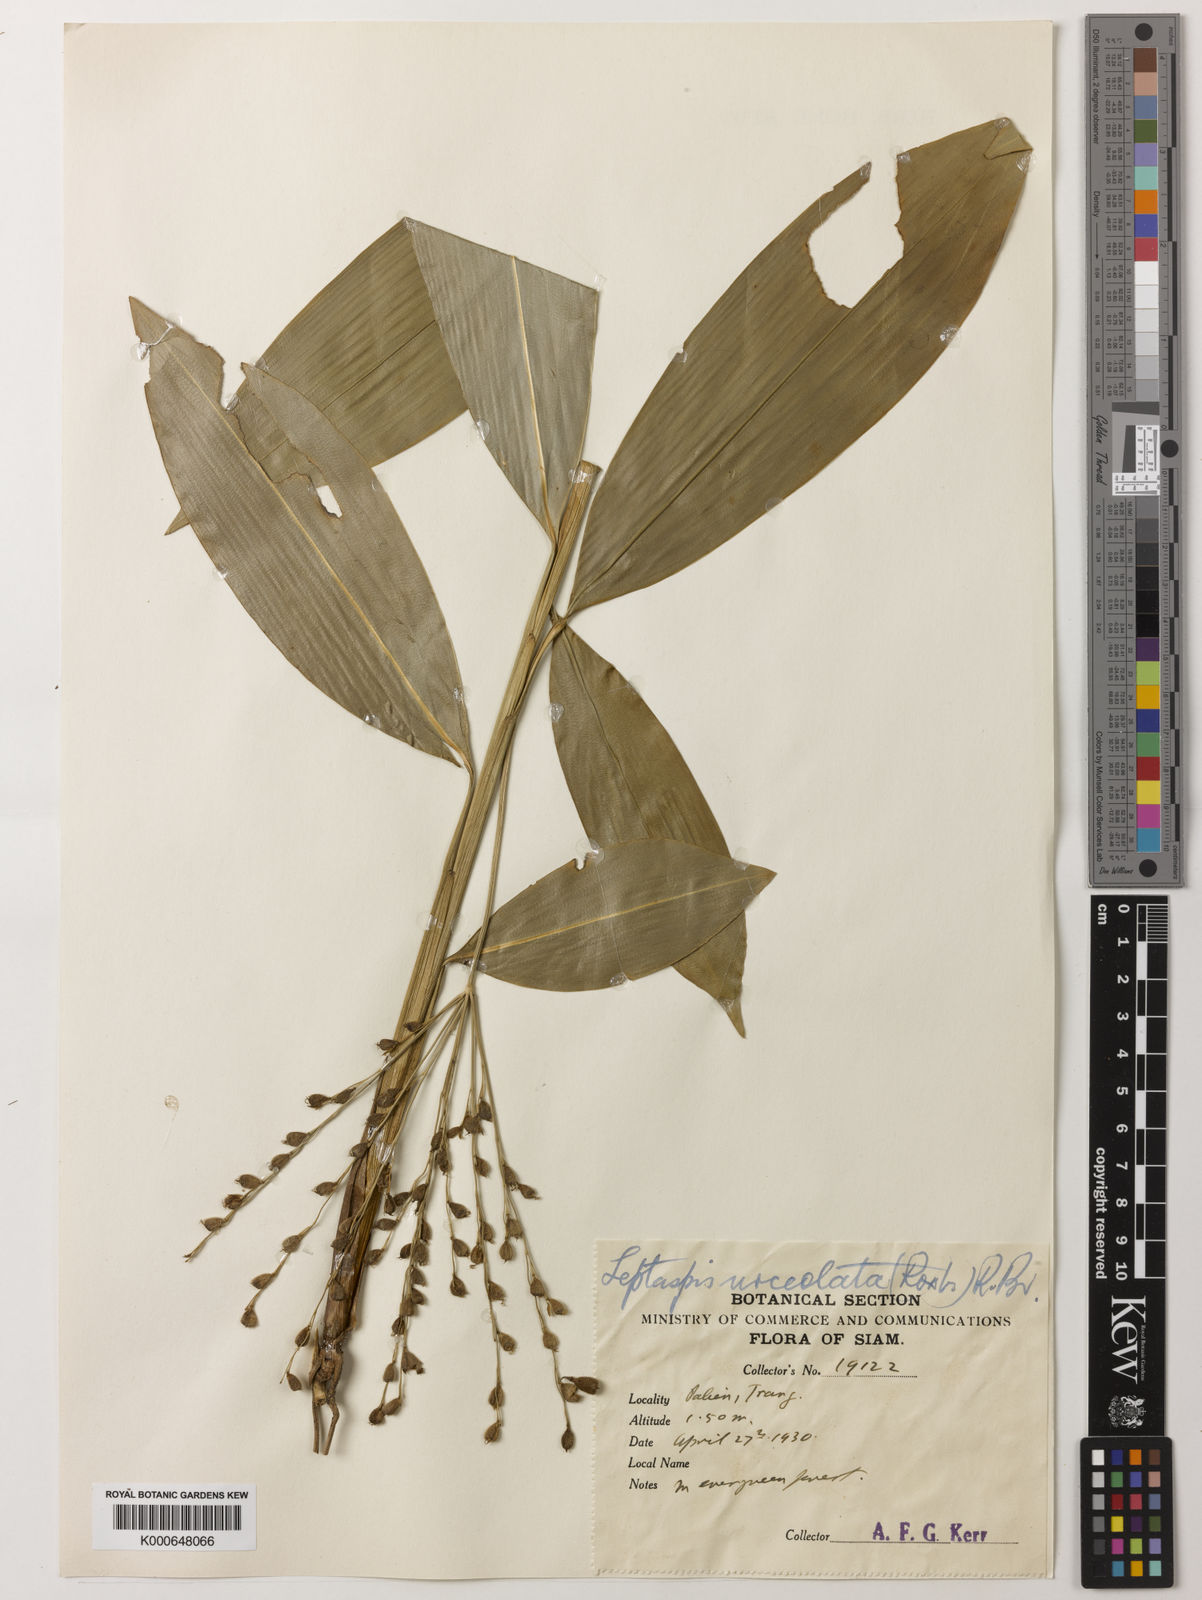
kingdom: Plantae
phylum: Tracheophyta
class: Liliopsida
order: Poales
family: Poaceae
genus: Scrotochloa
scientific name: Scrotochloa urceolata
